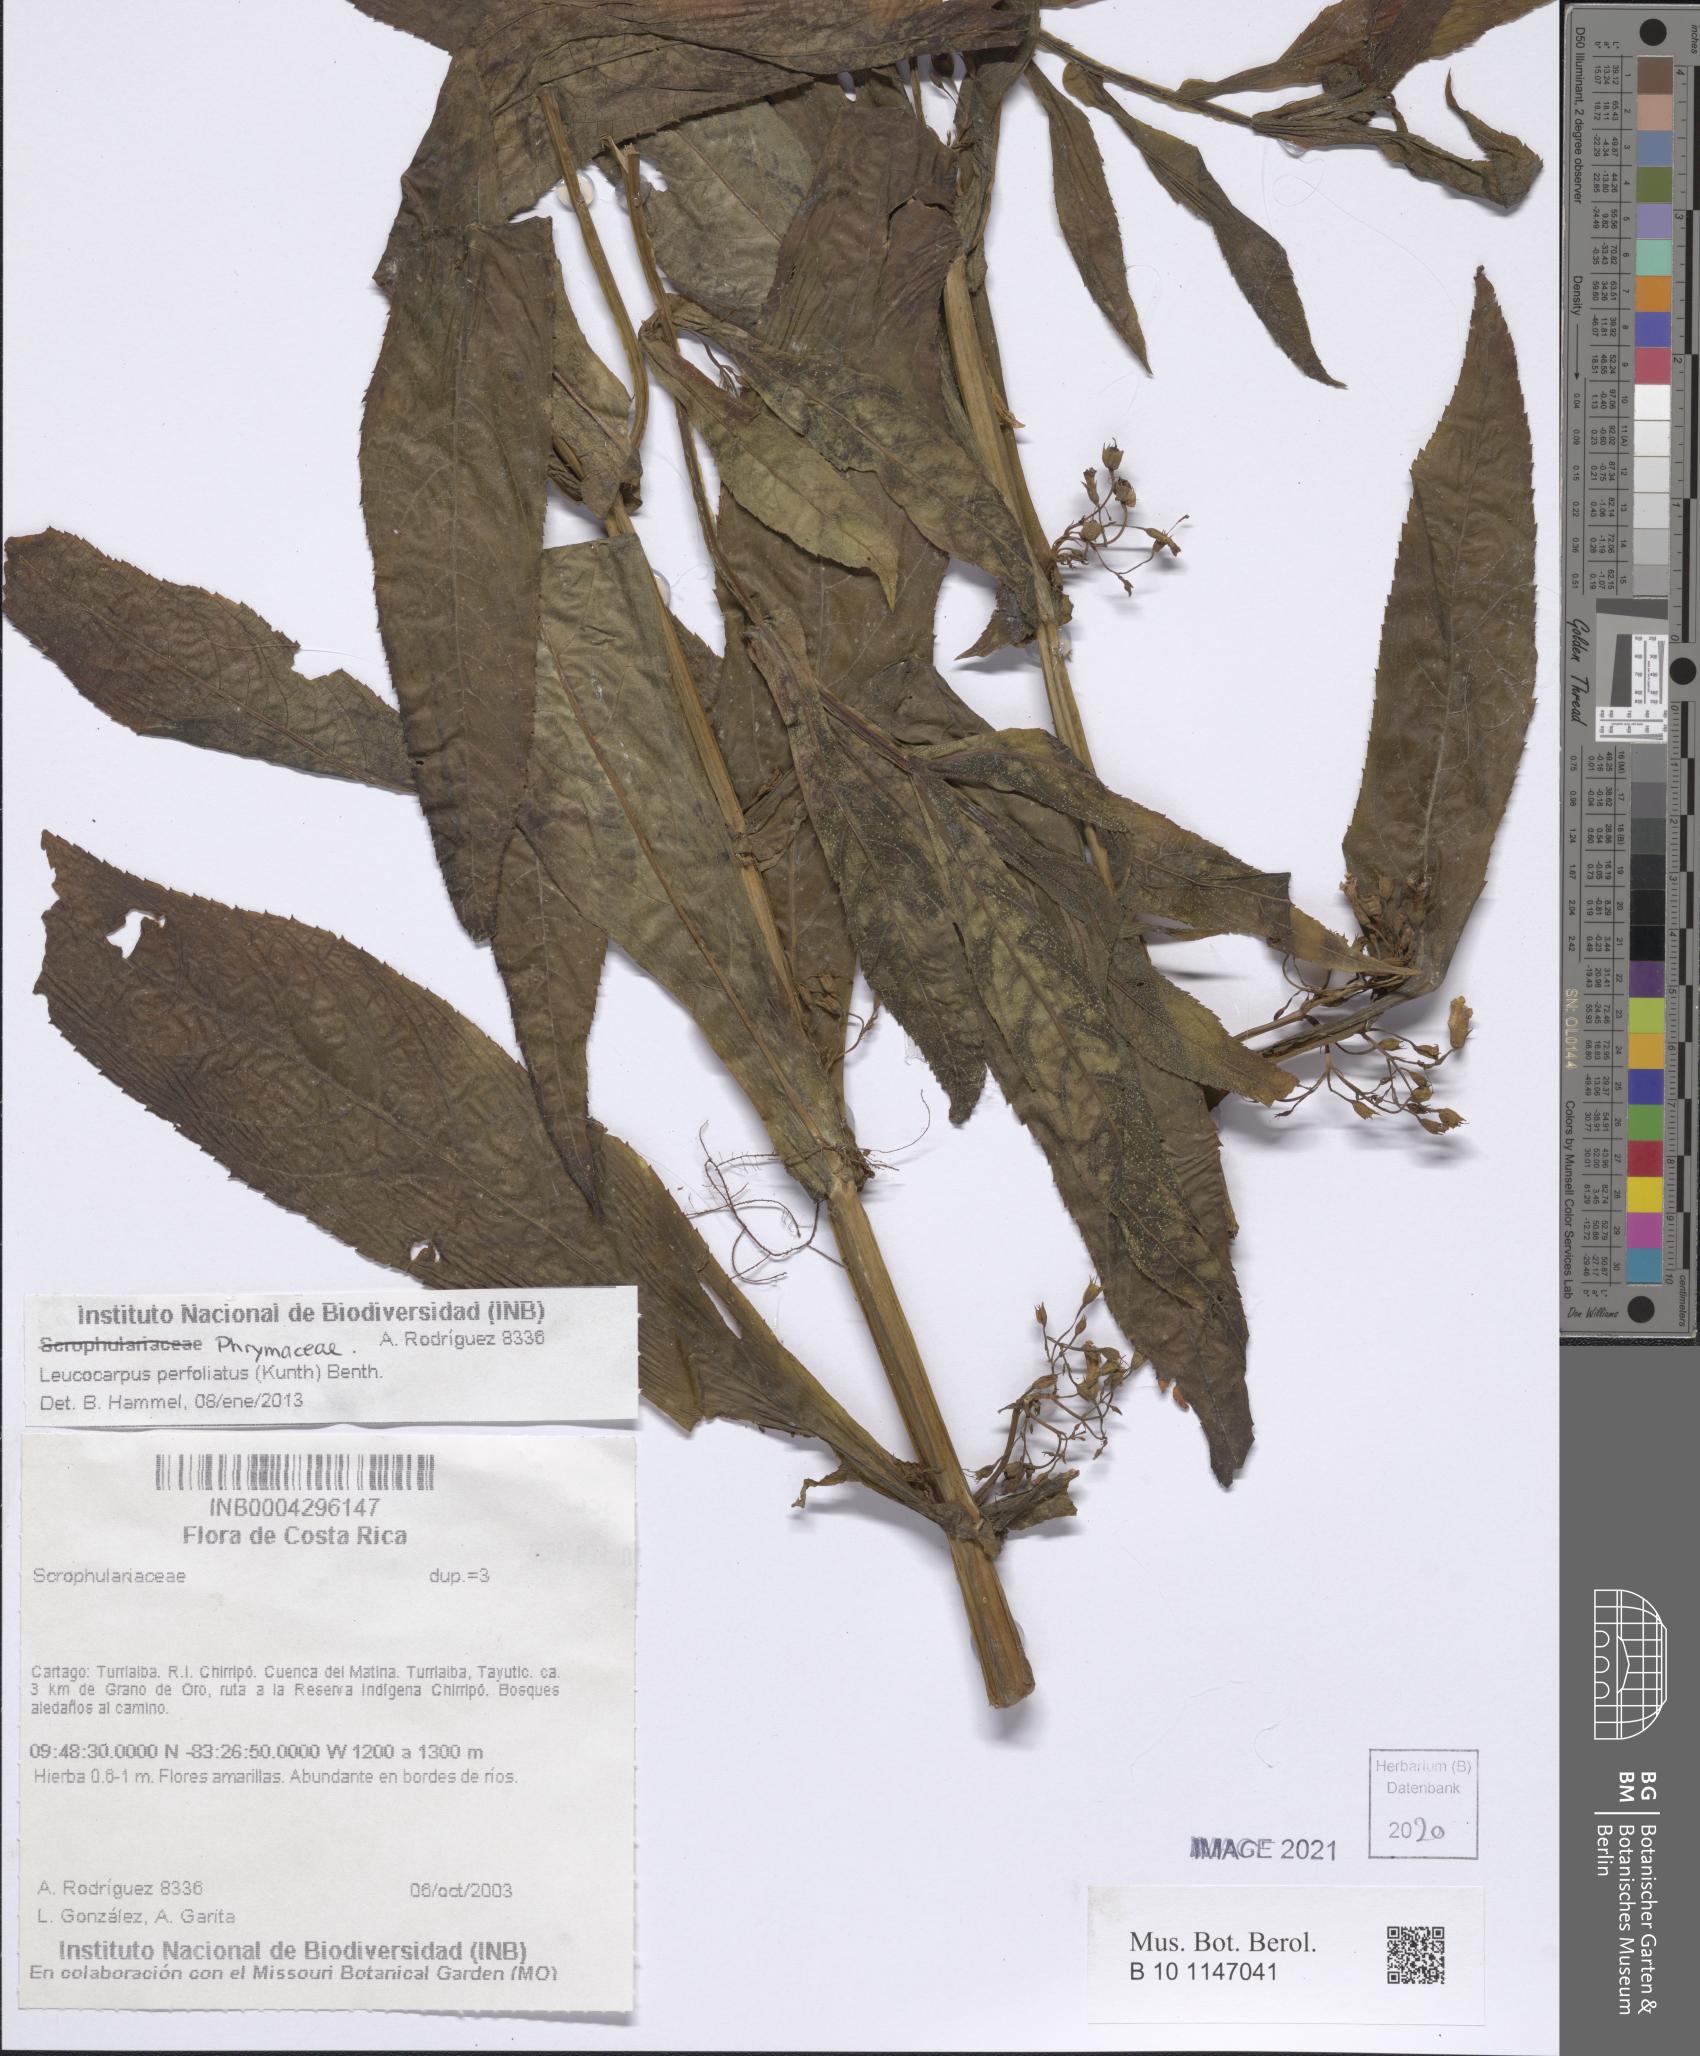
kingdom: Plantae
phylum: Tracheophyta
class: Magnoliopsida
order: Lamiales
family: Phrymaceae
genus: Leucocarpus
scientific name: Leucocarpus perfoliatus
